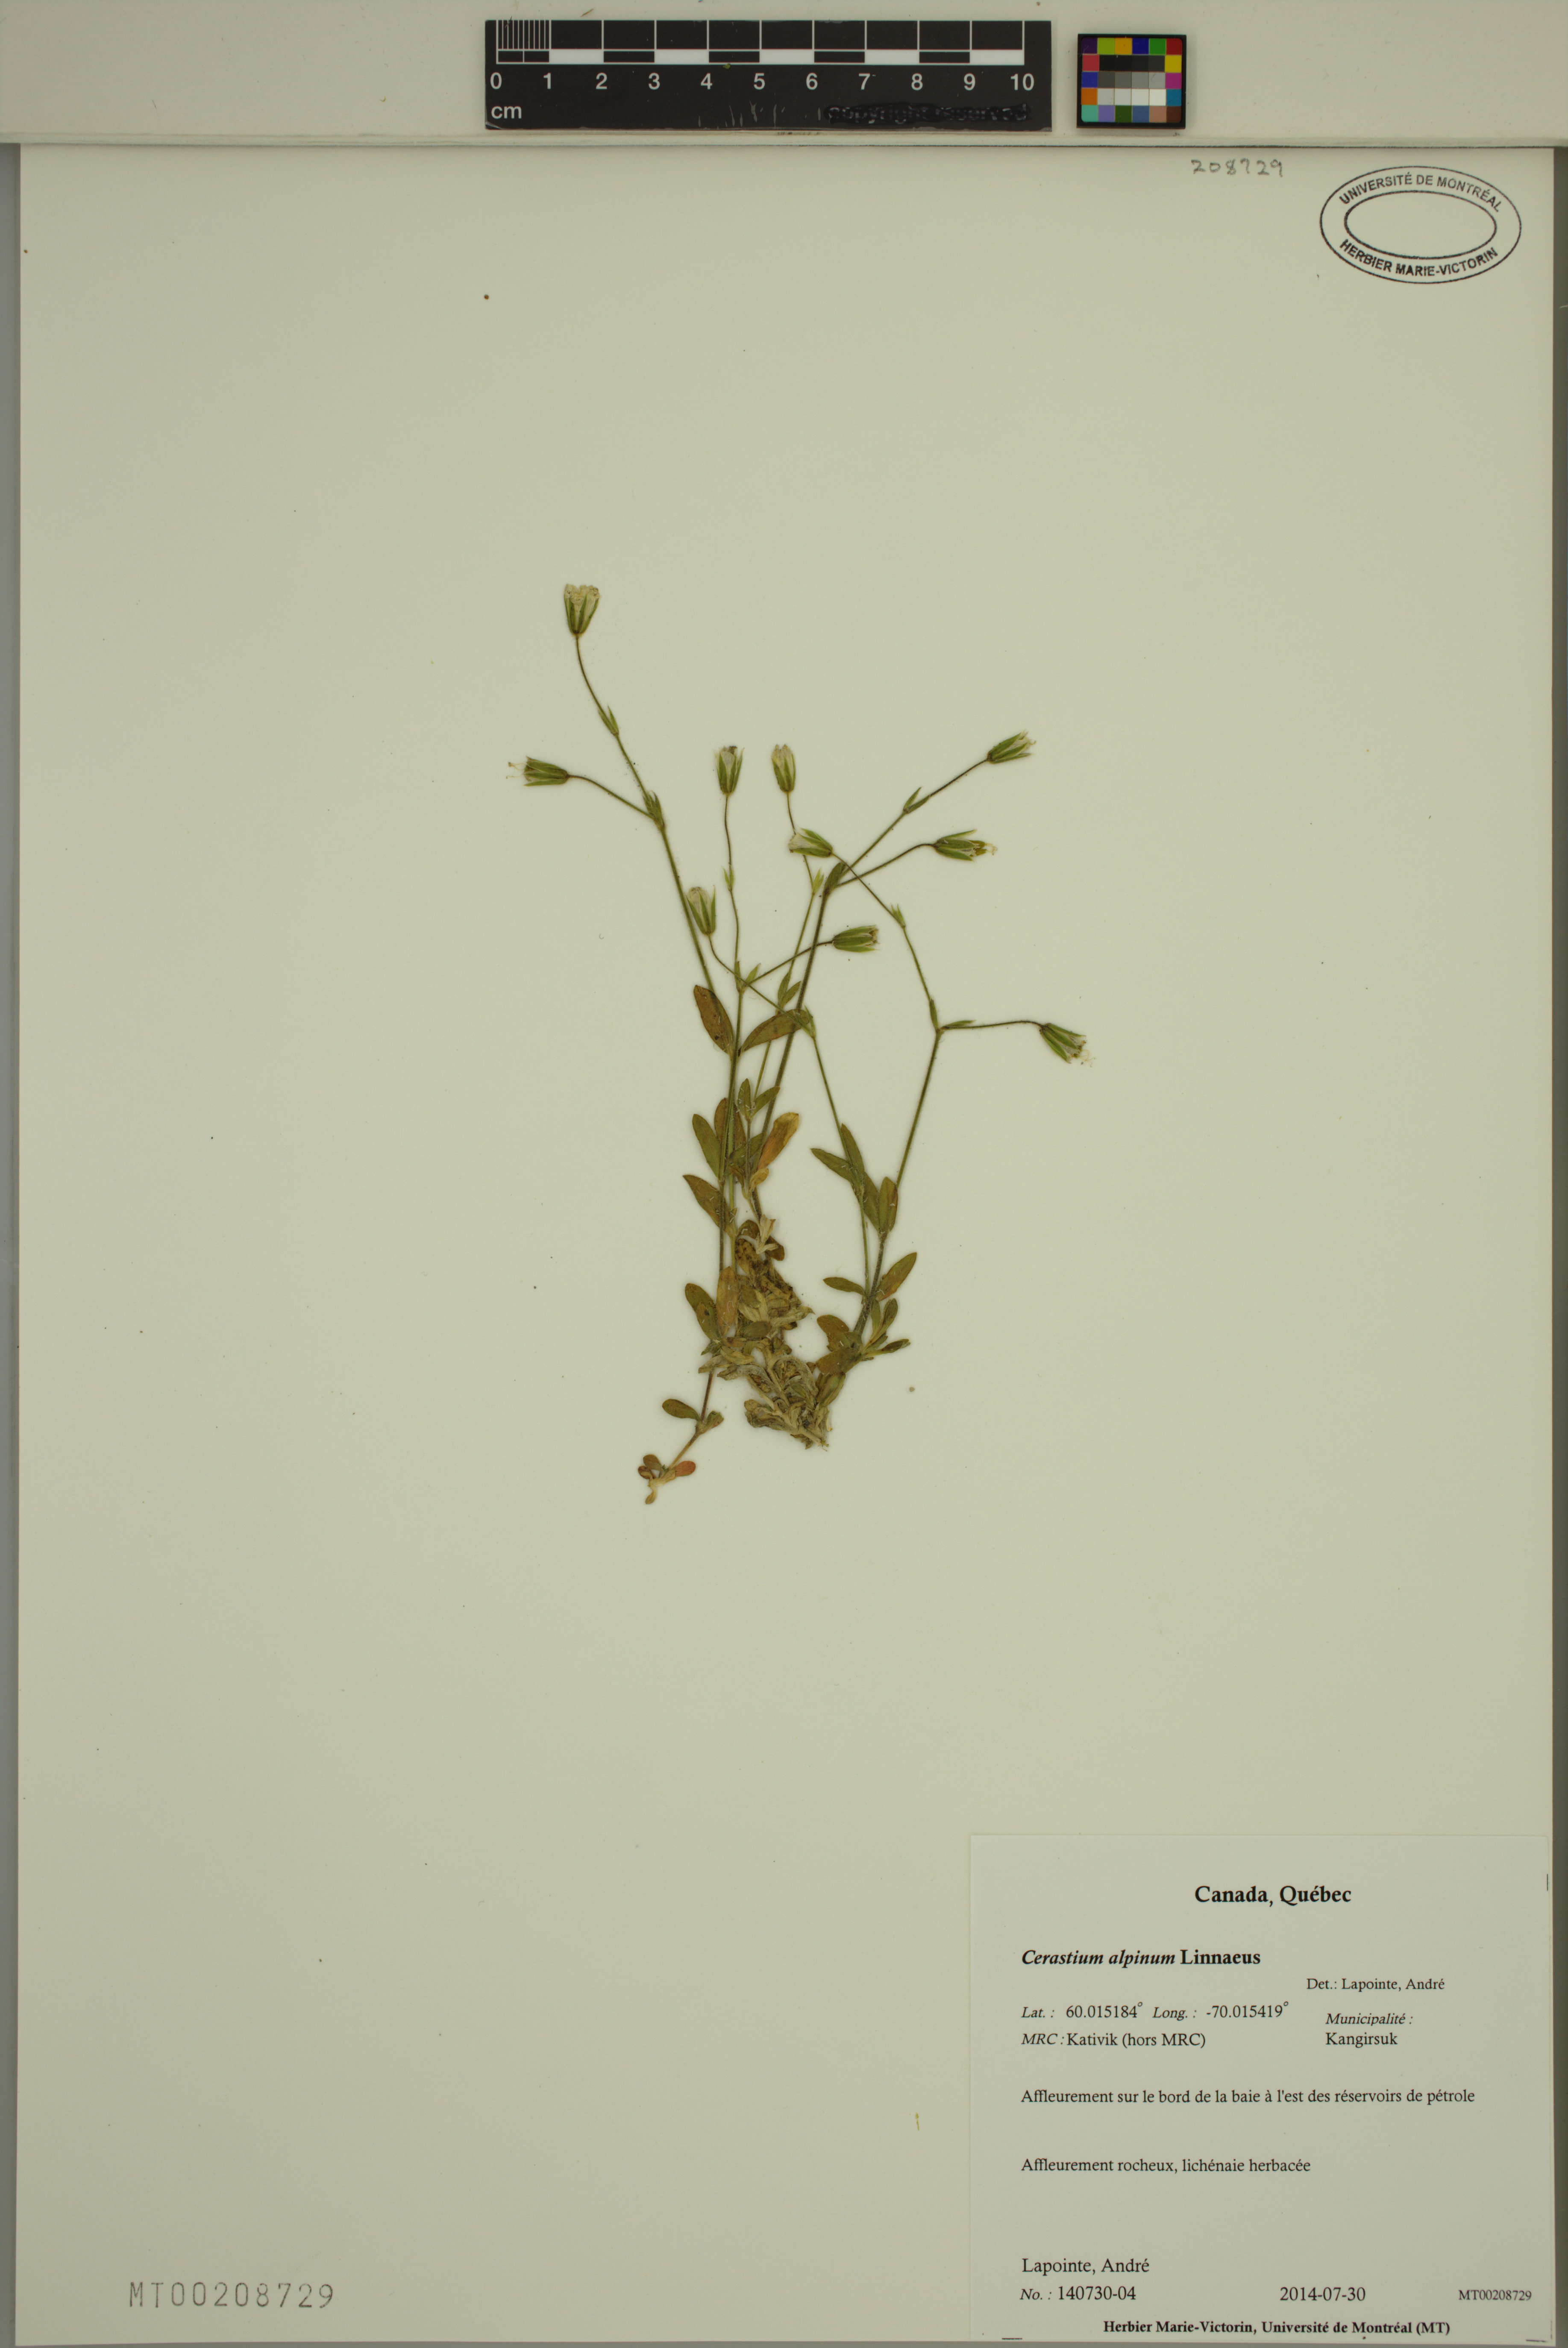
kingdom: Plantae
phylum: Tracheophyta
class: Magnoliopsida
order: Caryophyllales
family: Caryophyllaceae
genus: Cerastium
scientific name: Cerastium alpinum
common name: Alpine mouse-ear
